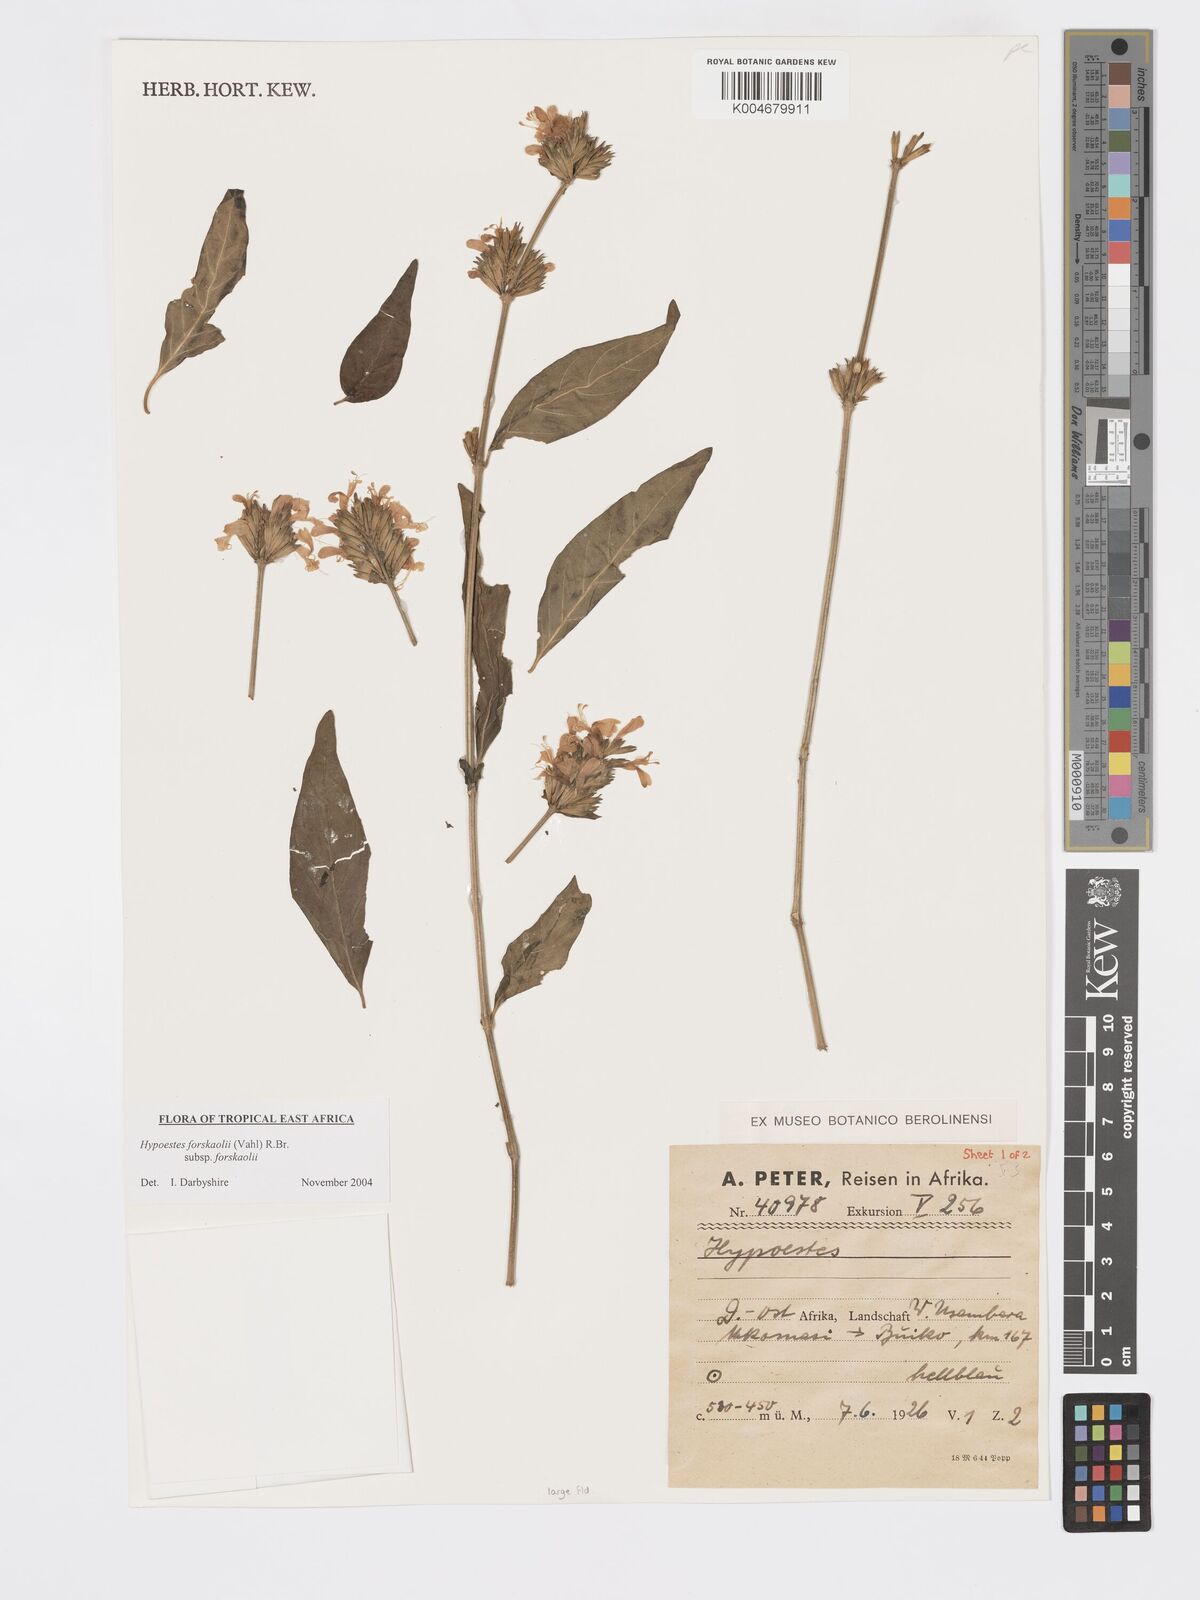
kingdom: Plantae
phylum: Tracheophyta
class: Magnoliopsida
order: Lamiales
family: Acanthaceae
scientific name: Acanthaceae
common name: Acanthaceae
